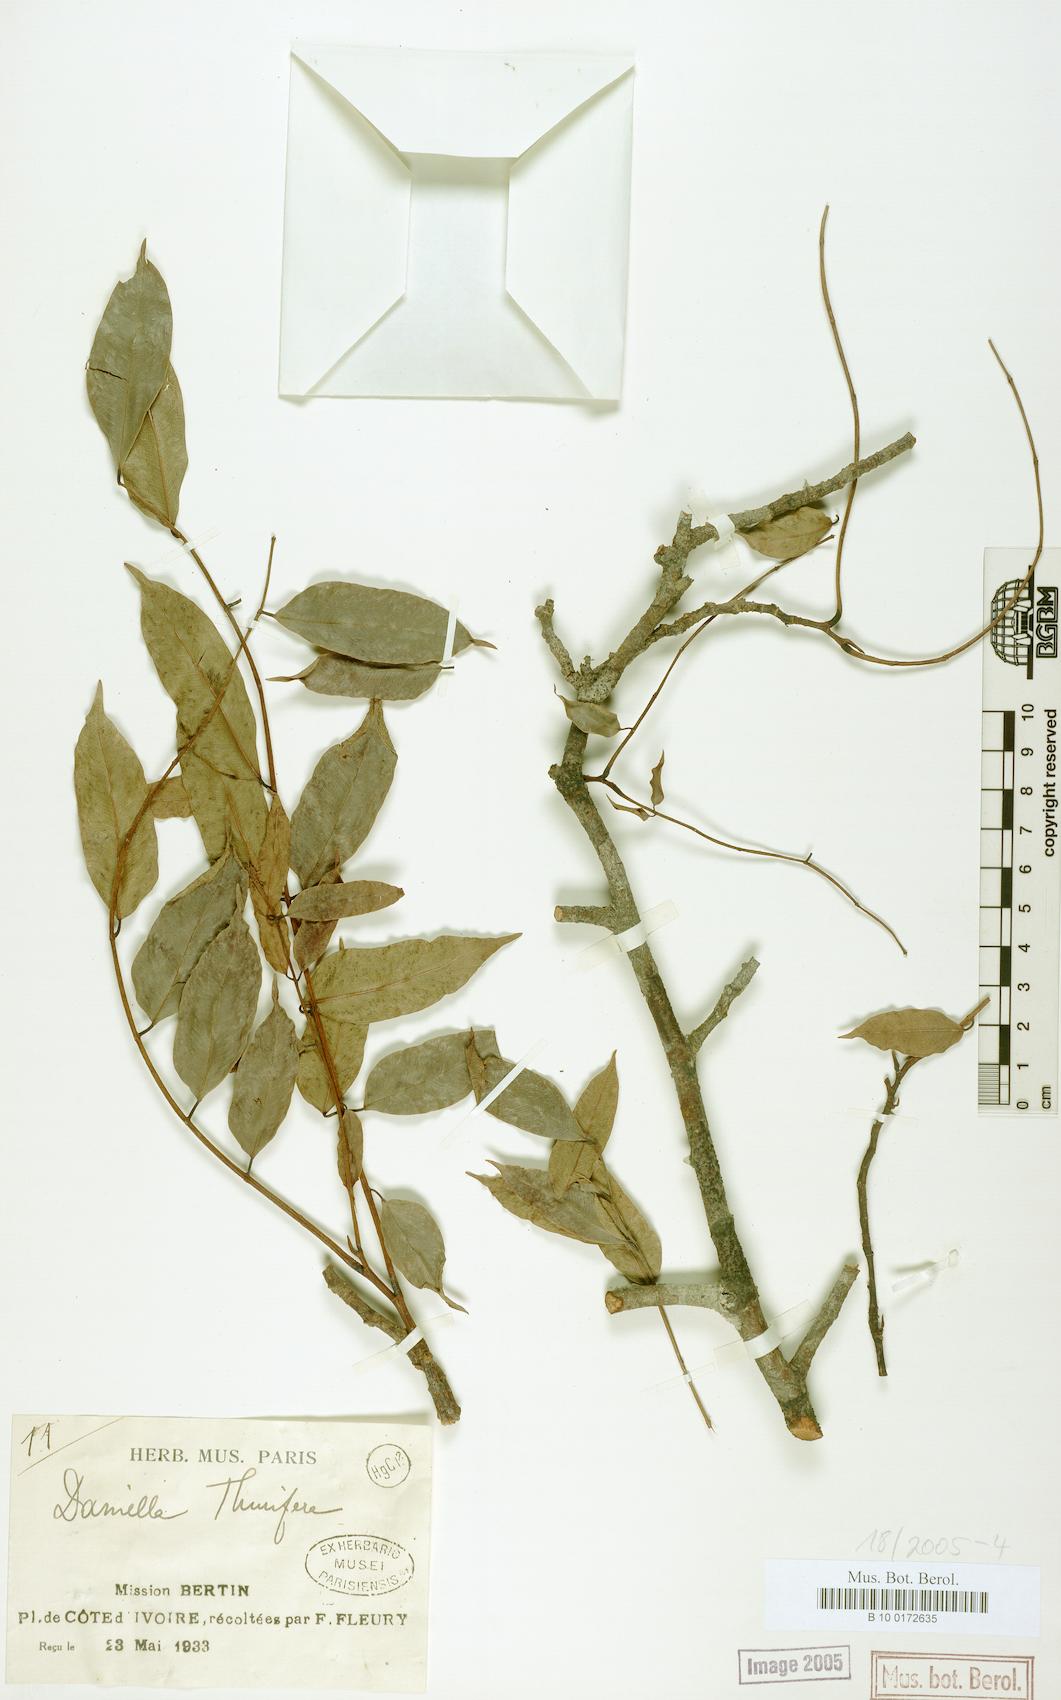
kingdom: Plantae
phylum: Tracheophyta
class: Magnoliopsida
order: Fabales
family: Fabaceae
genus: Daniellia
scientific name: Daniellia thurifera
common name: Sudan copal
